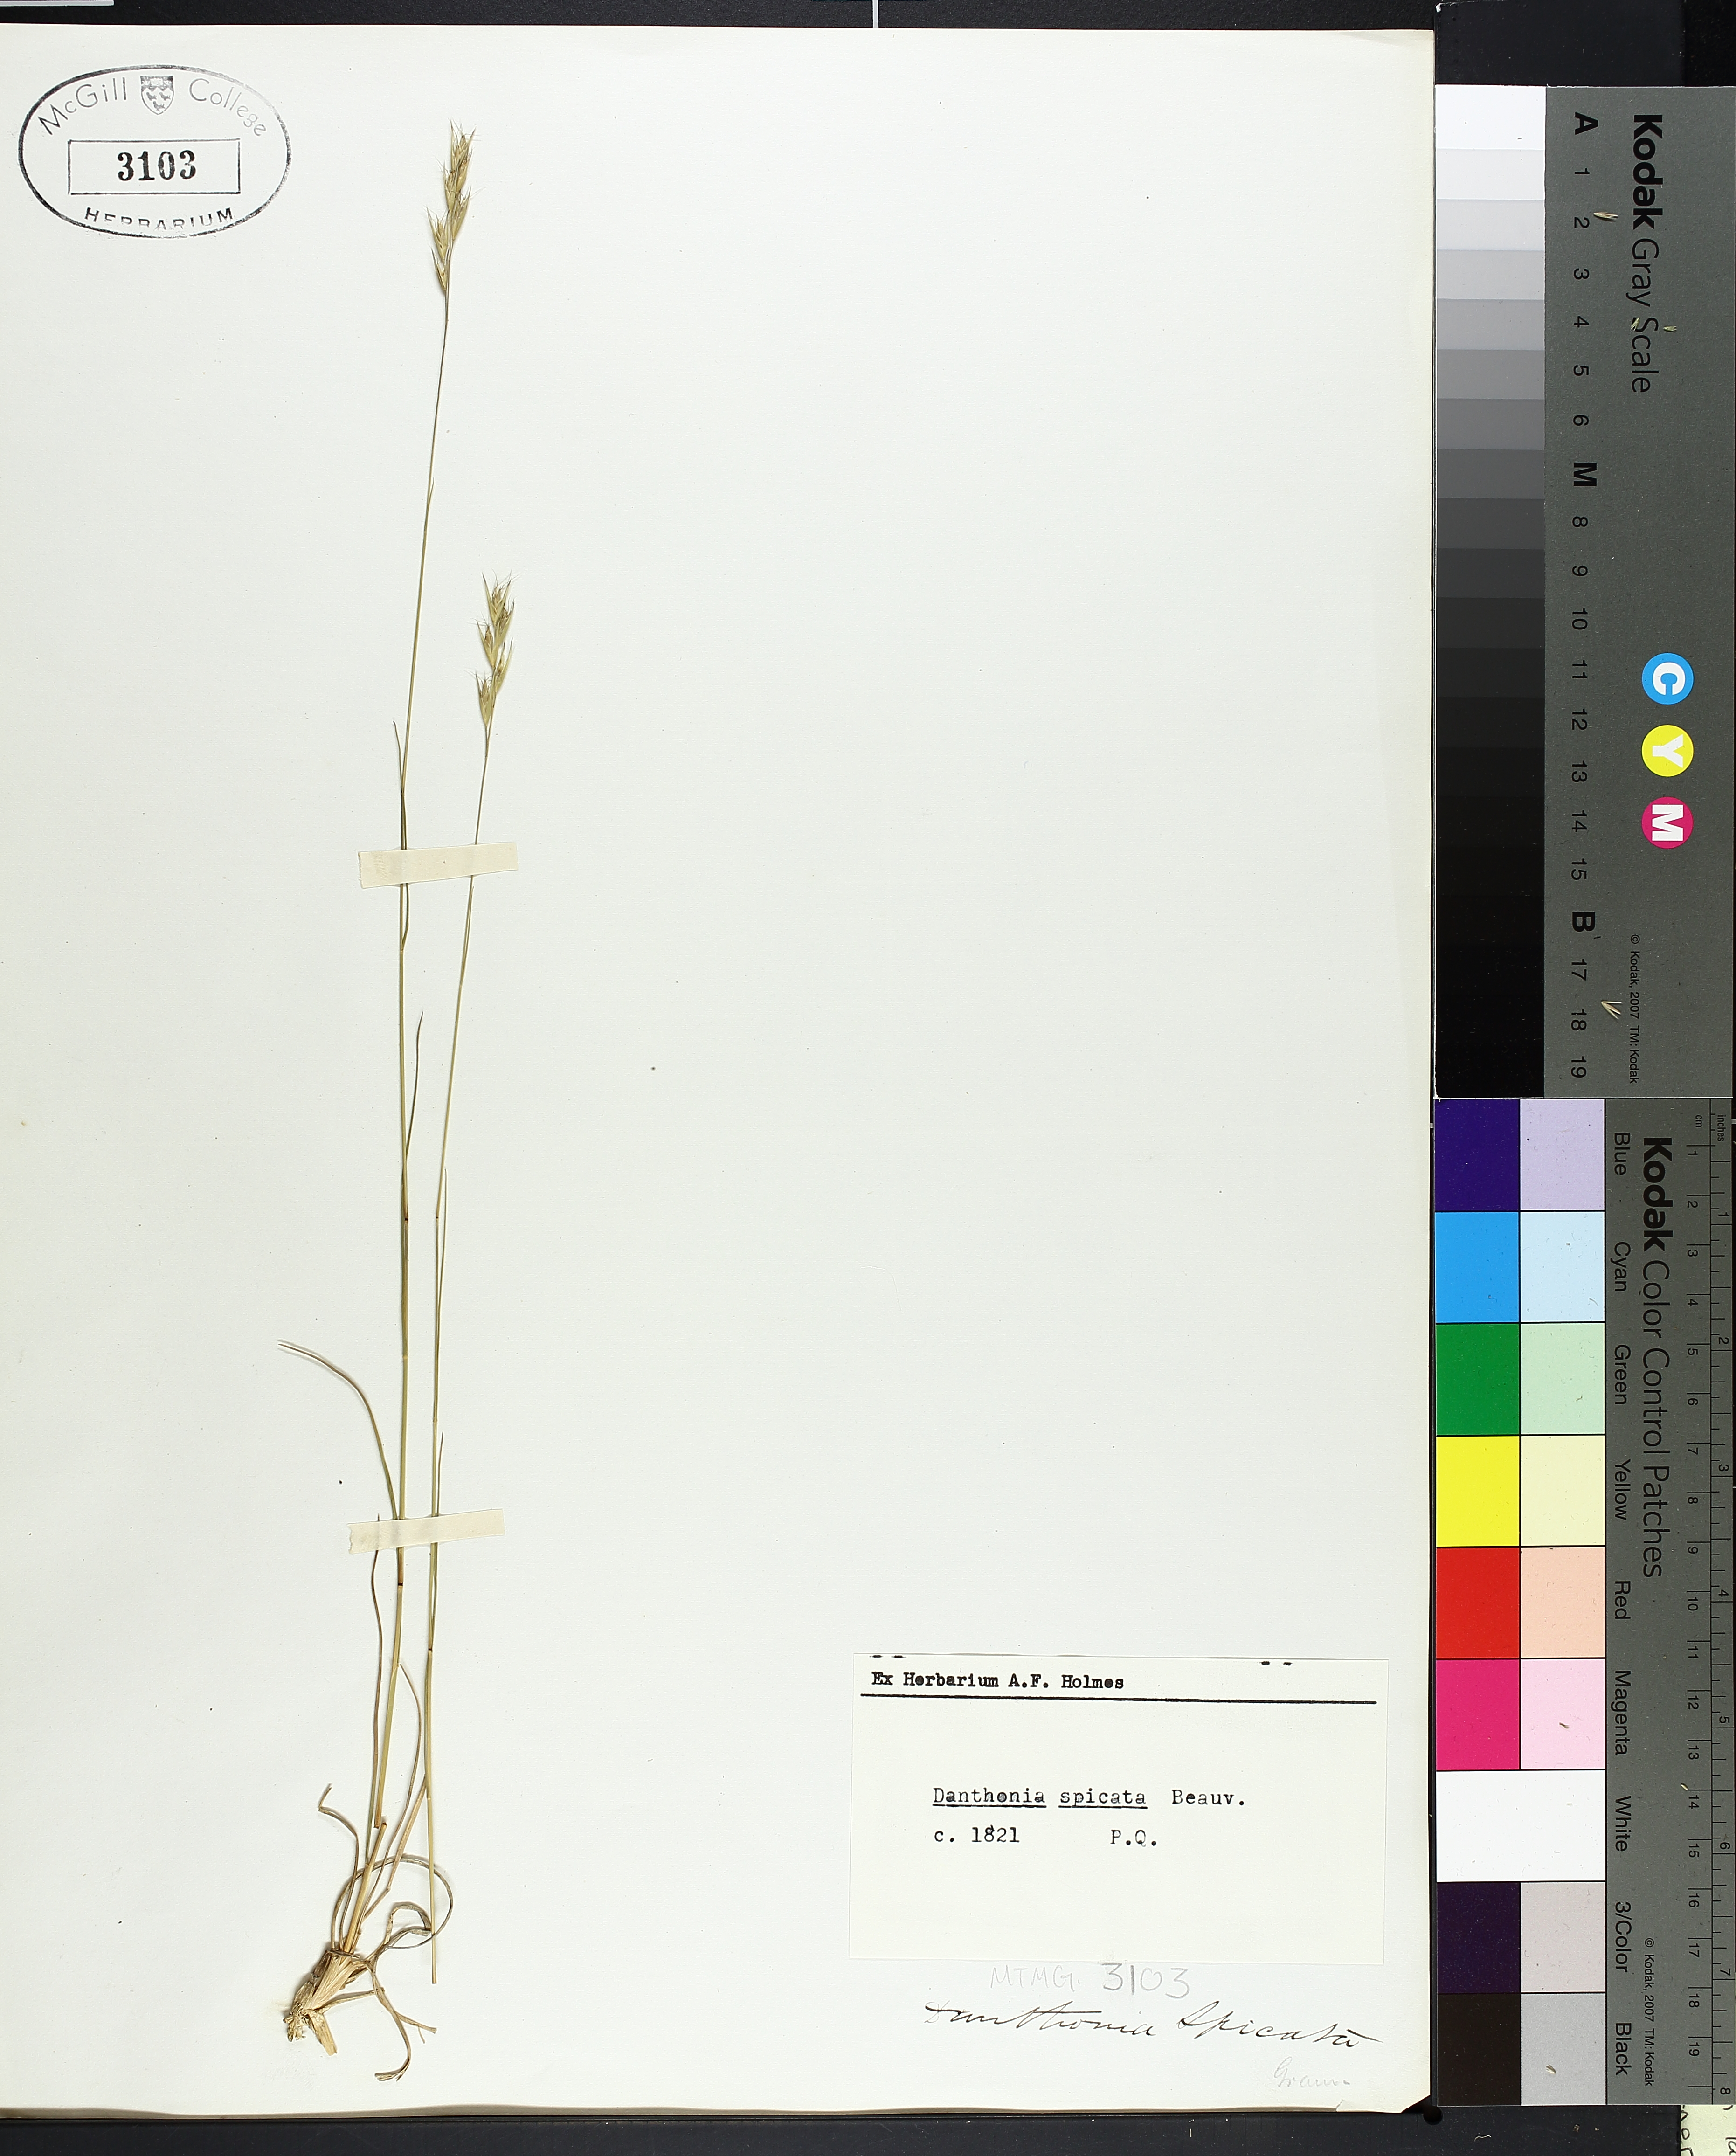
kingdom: Plantae
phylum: Tracheophyta
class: Liliopsida
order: Poales
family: Poaceae
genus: Danthonia
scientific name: Danthonia spicata
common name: Common wild oatgrass
